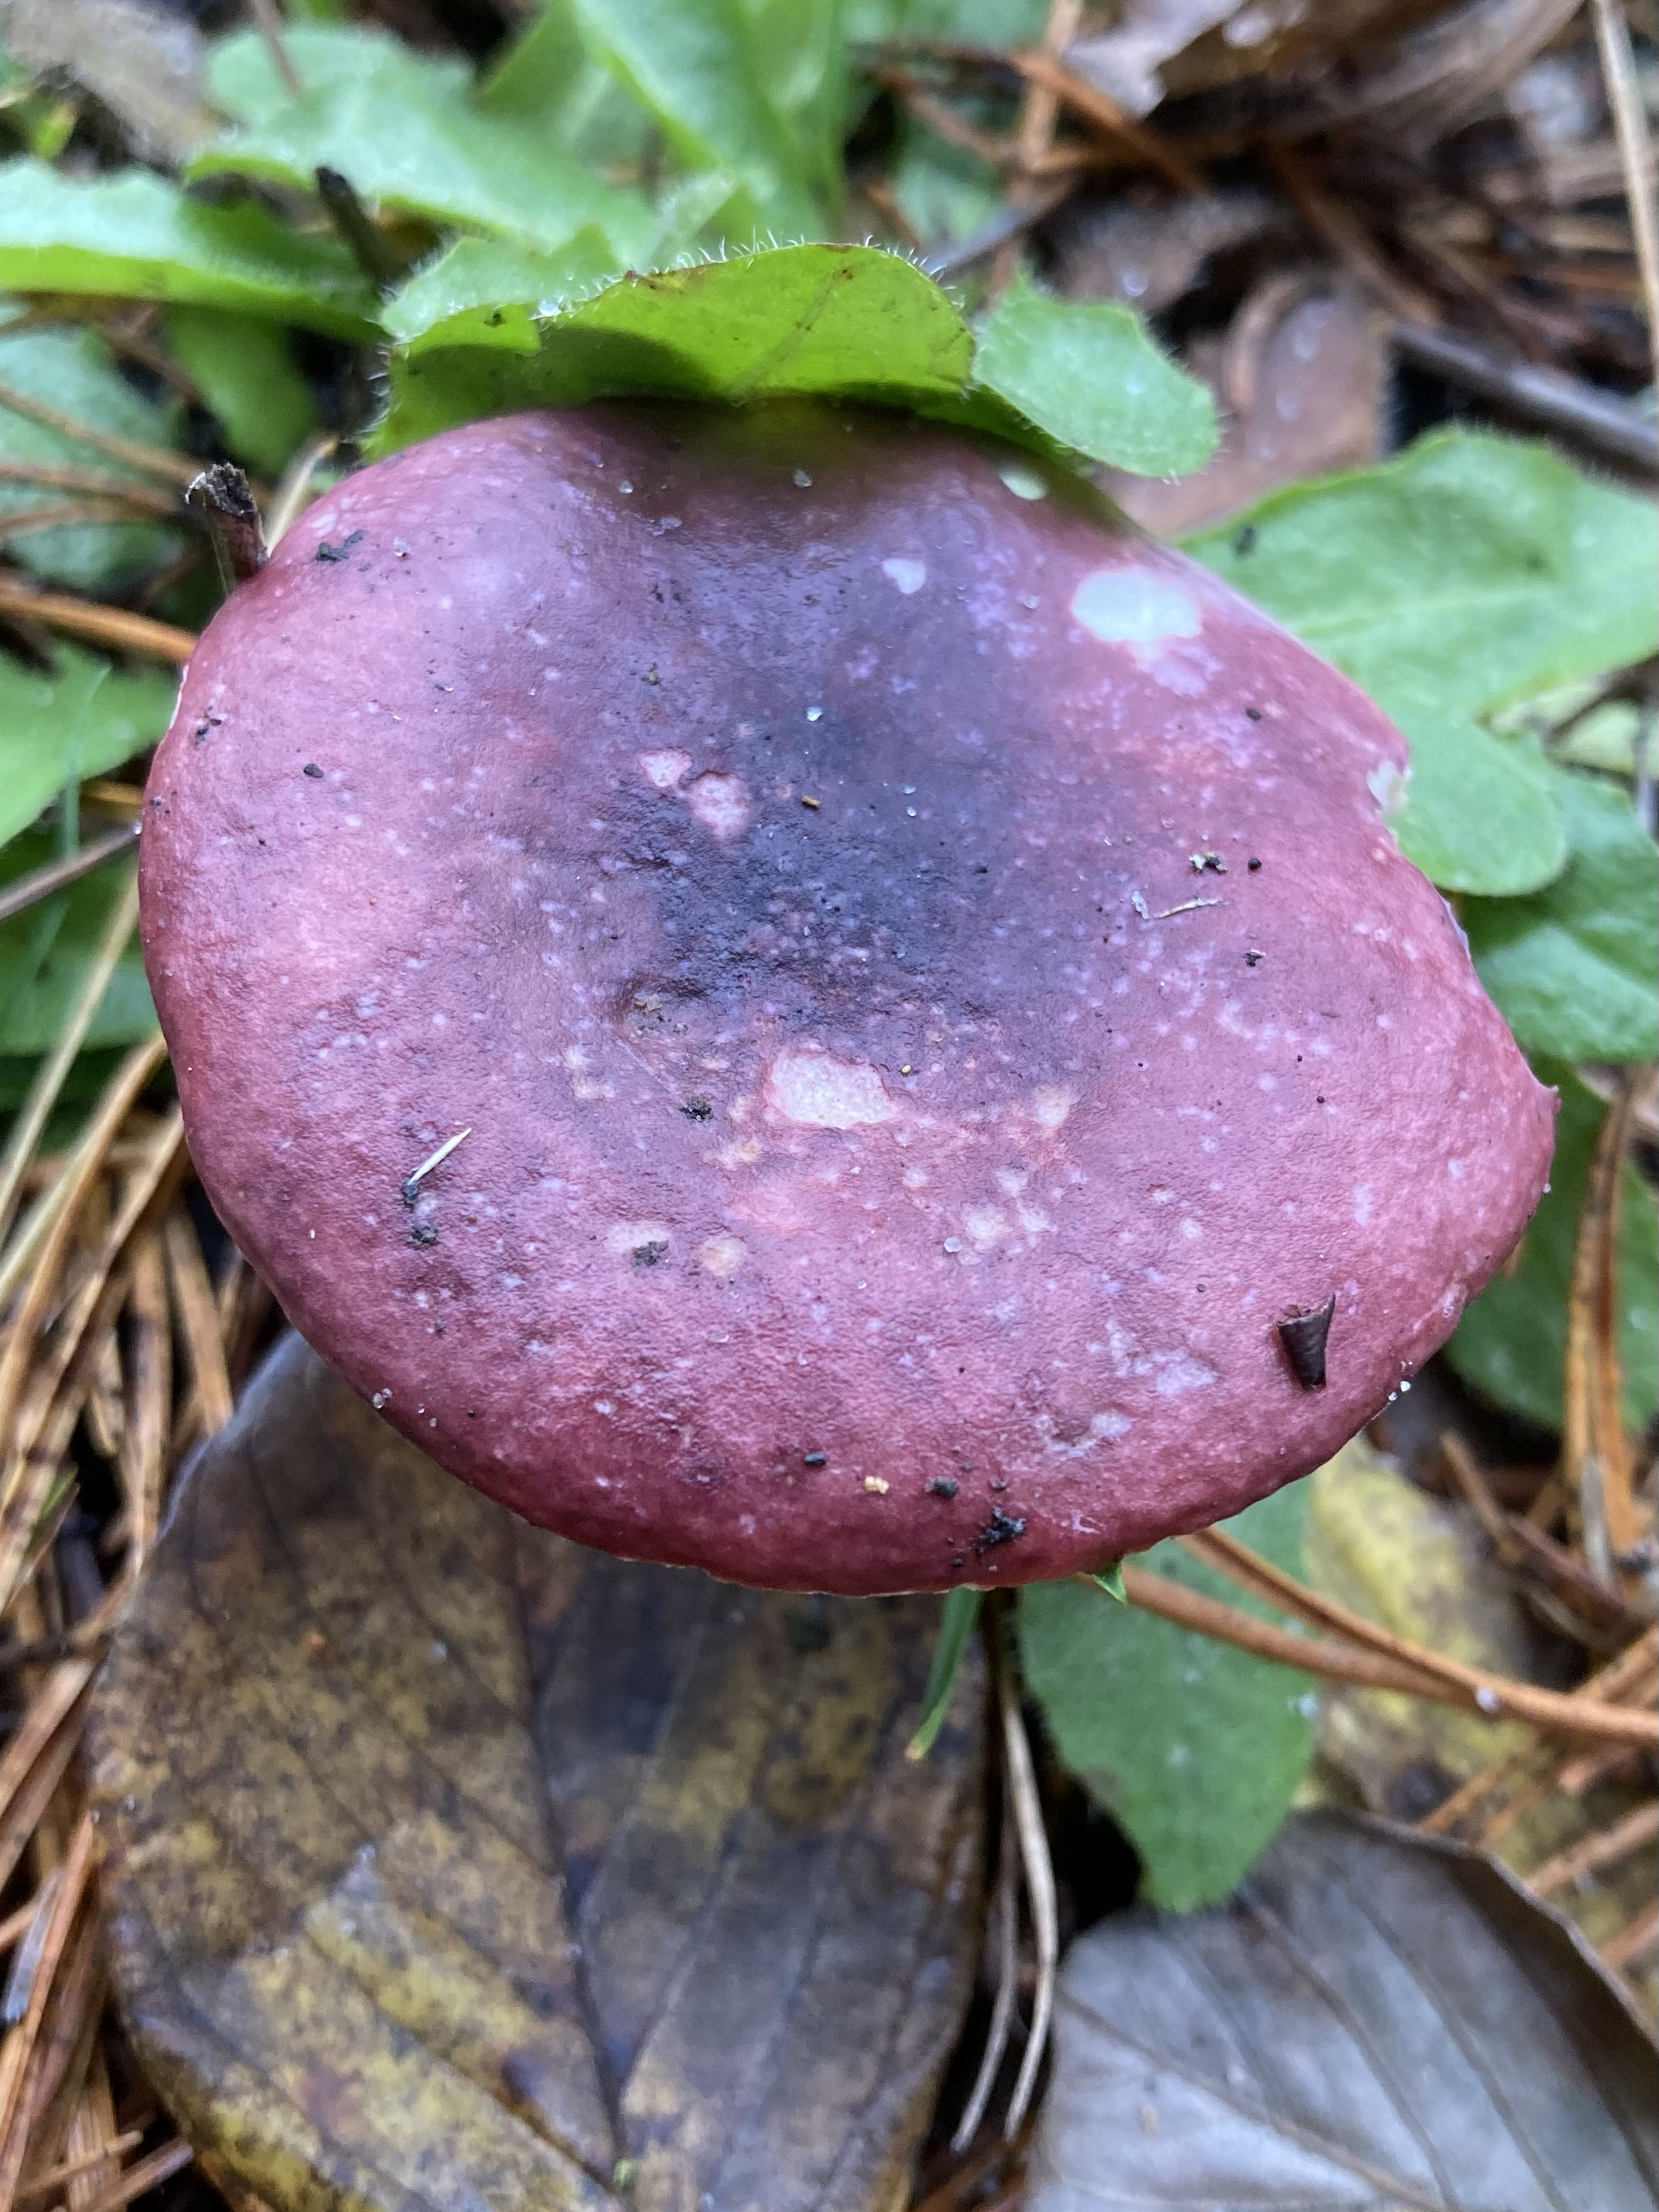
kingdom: Fungi
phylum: Basidiomycota
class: Agaricomycetes
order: Russulales
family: Russulaceae
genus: Russula
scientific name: Russula sardonia
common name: citronbladet skørhat
